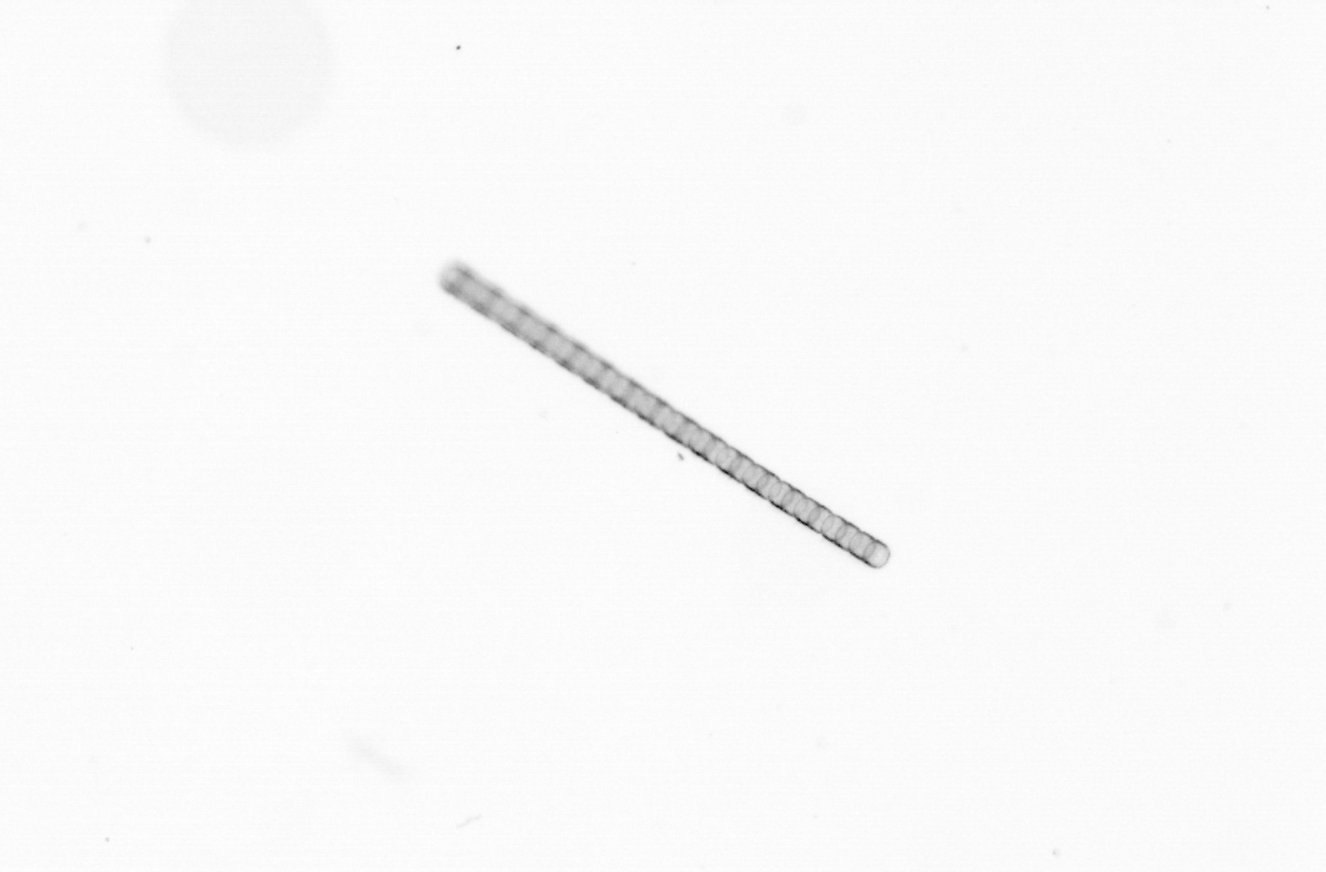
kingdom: Chromista
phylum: Ochrophyta
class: Bacillariophyceae
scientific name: Bacillariophyceae
